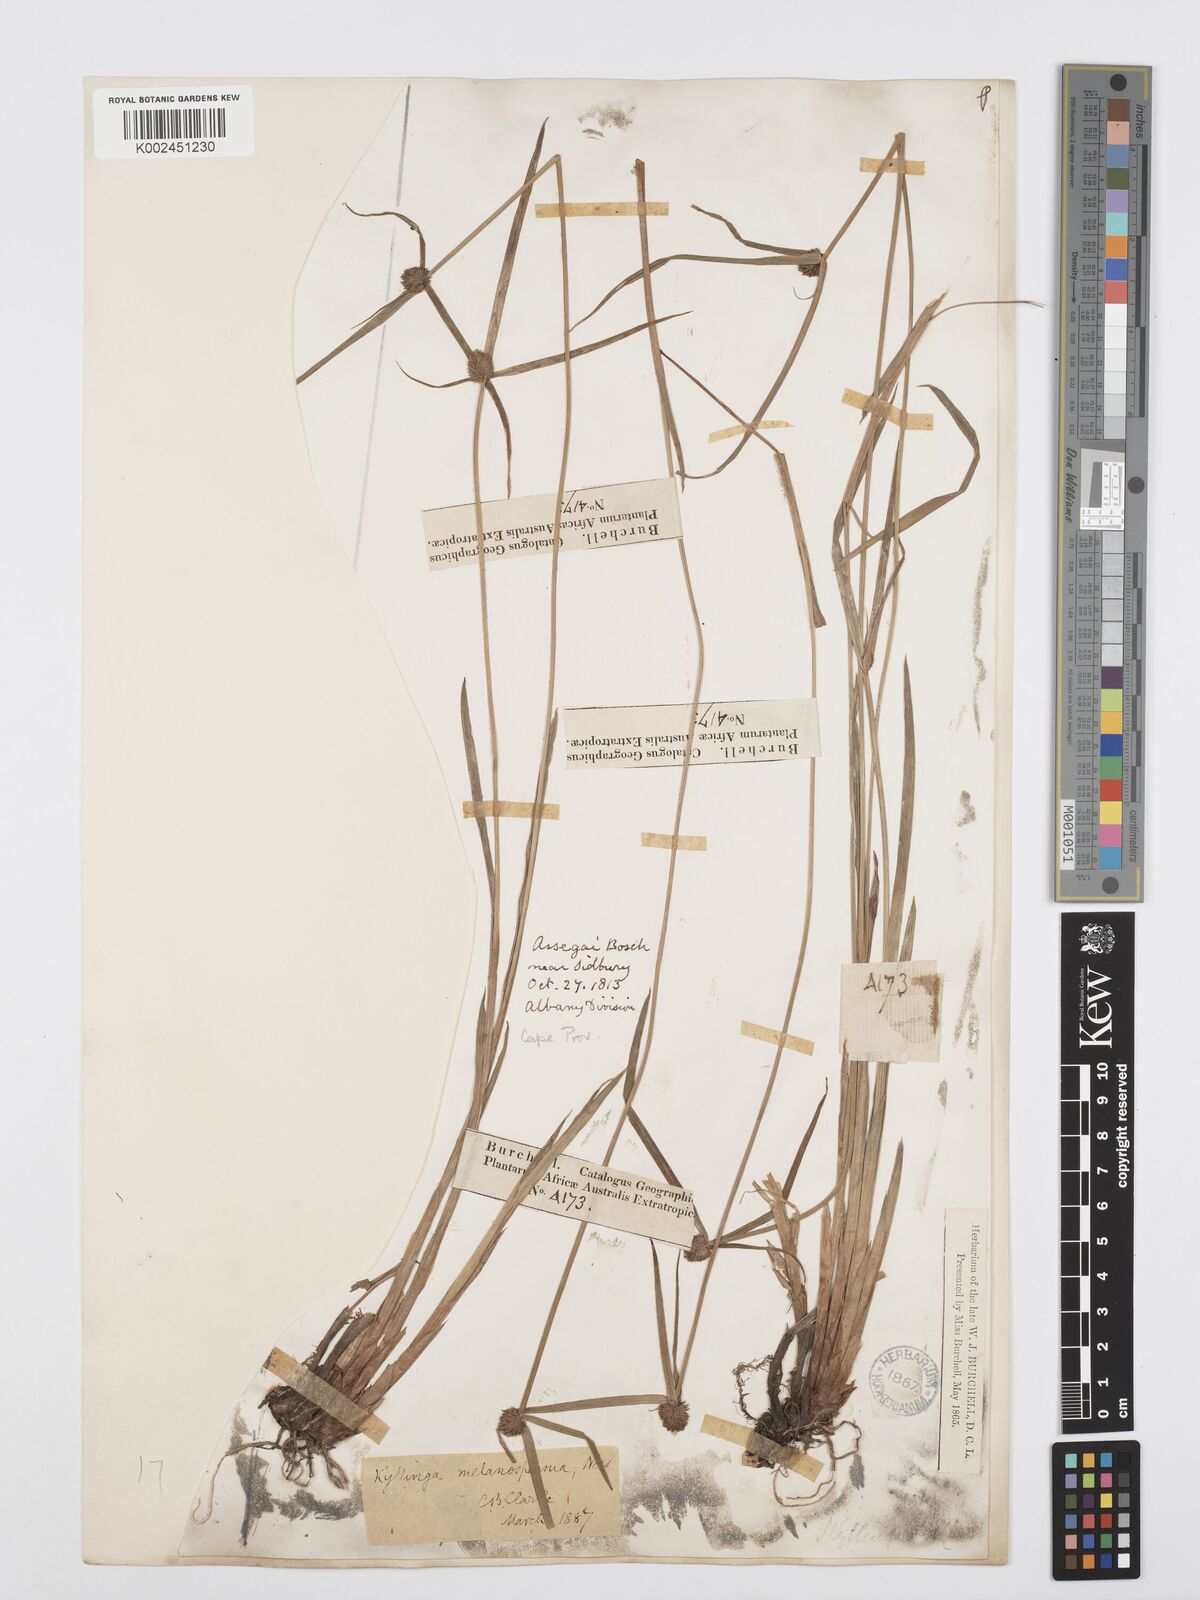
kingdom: Plantae
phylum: Tracheophyta
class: Liliopsida
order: Poales
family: Cyperaceae
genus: Cyperus
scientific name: Cyperus melanospermus
